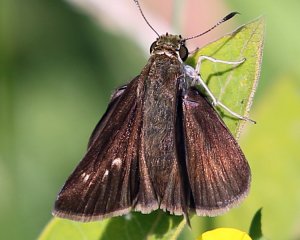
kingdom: Animalia
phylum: Arthropoda
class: Insecta
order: Lepidoptera
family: Hesperiidae
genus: Polites
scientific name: Polites egeremet
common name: Northern Broken-Dash
